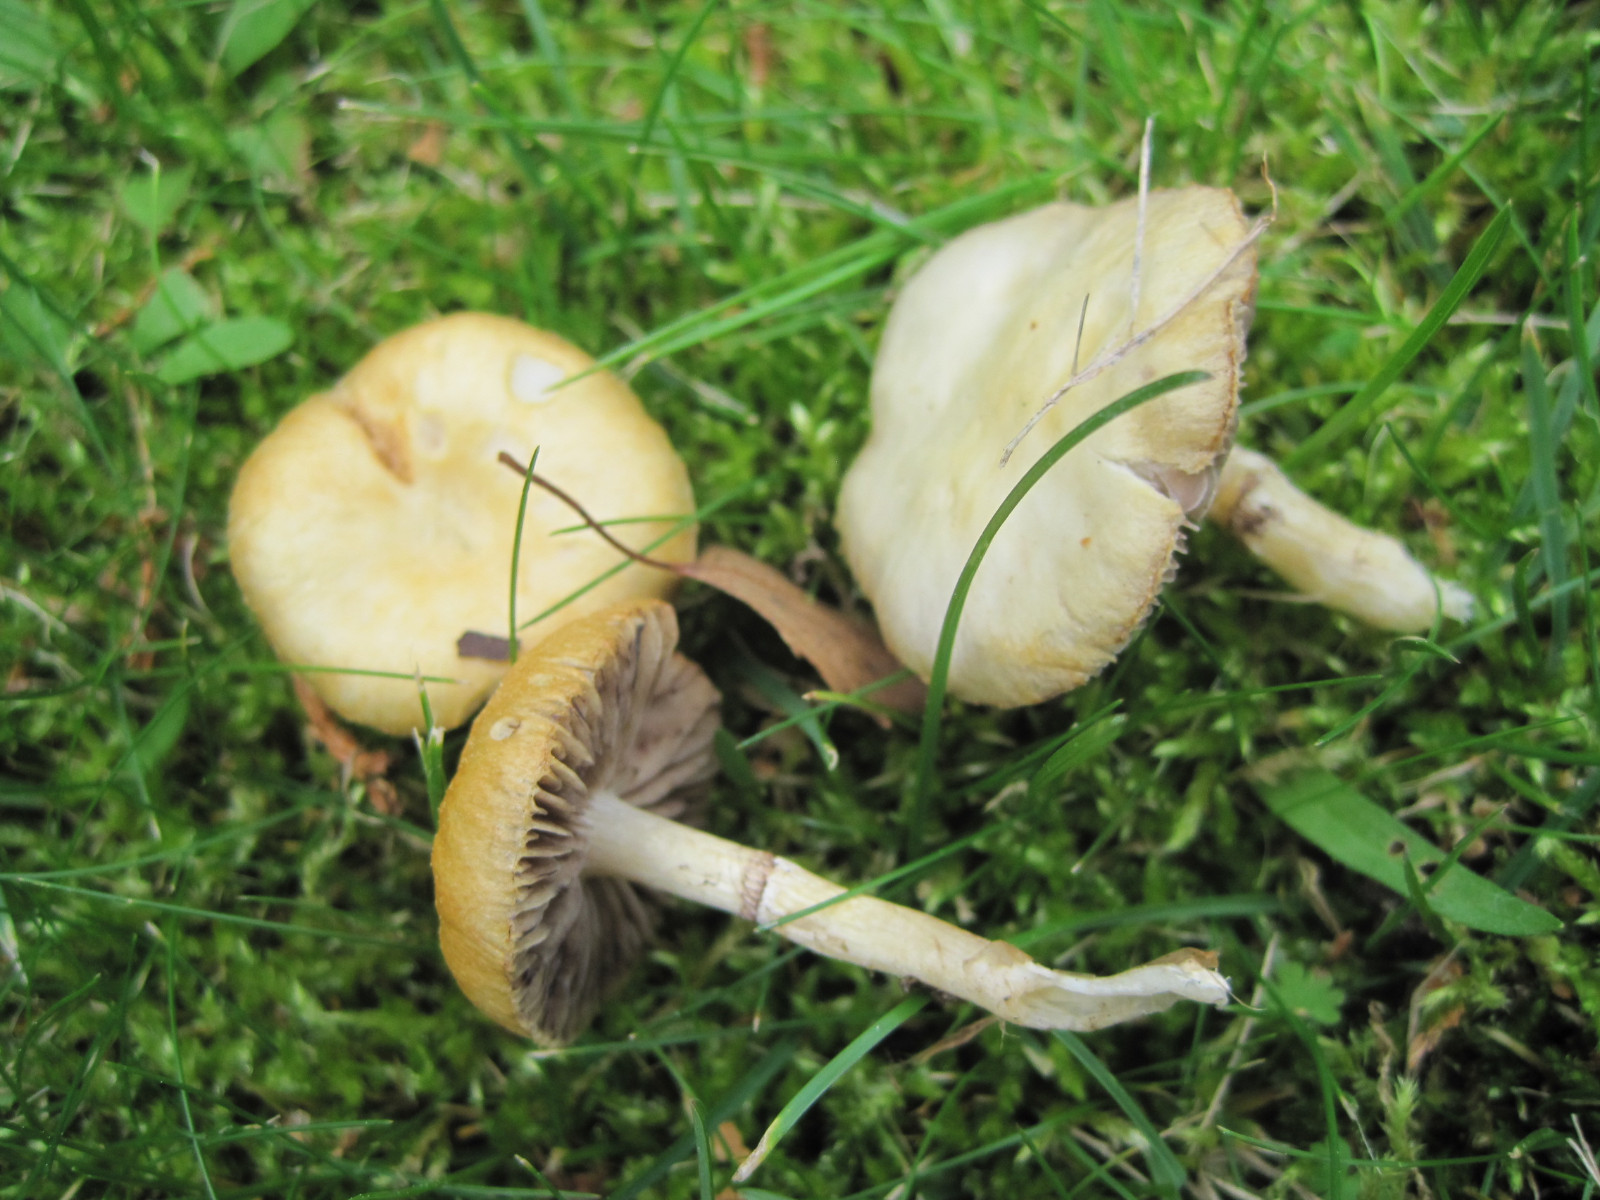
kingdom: Fungi
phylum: Basidiomycota
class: Agaricomycetes
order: Agaricales
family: Hymenogastraceae
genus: Psilocybe
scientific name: Psilocybe coronilla
